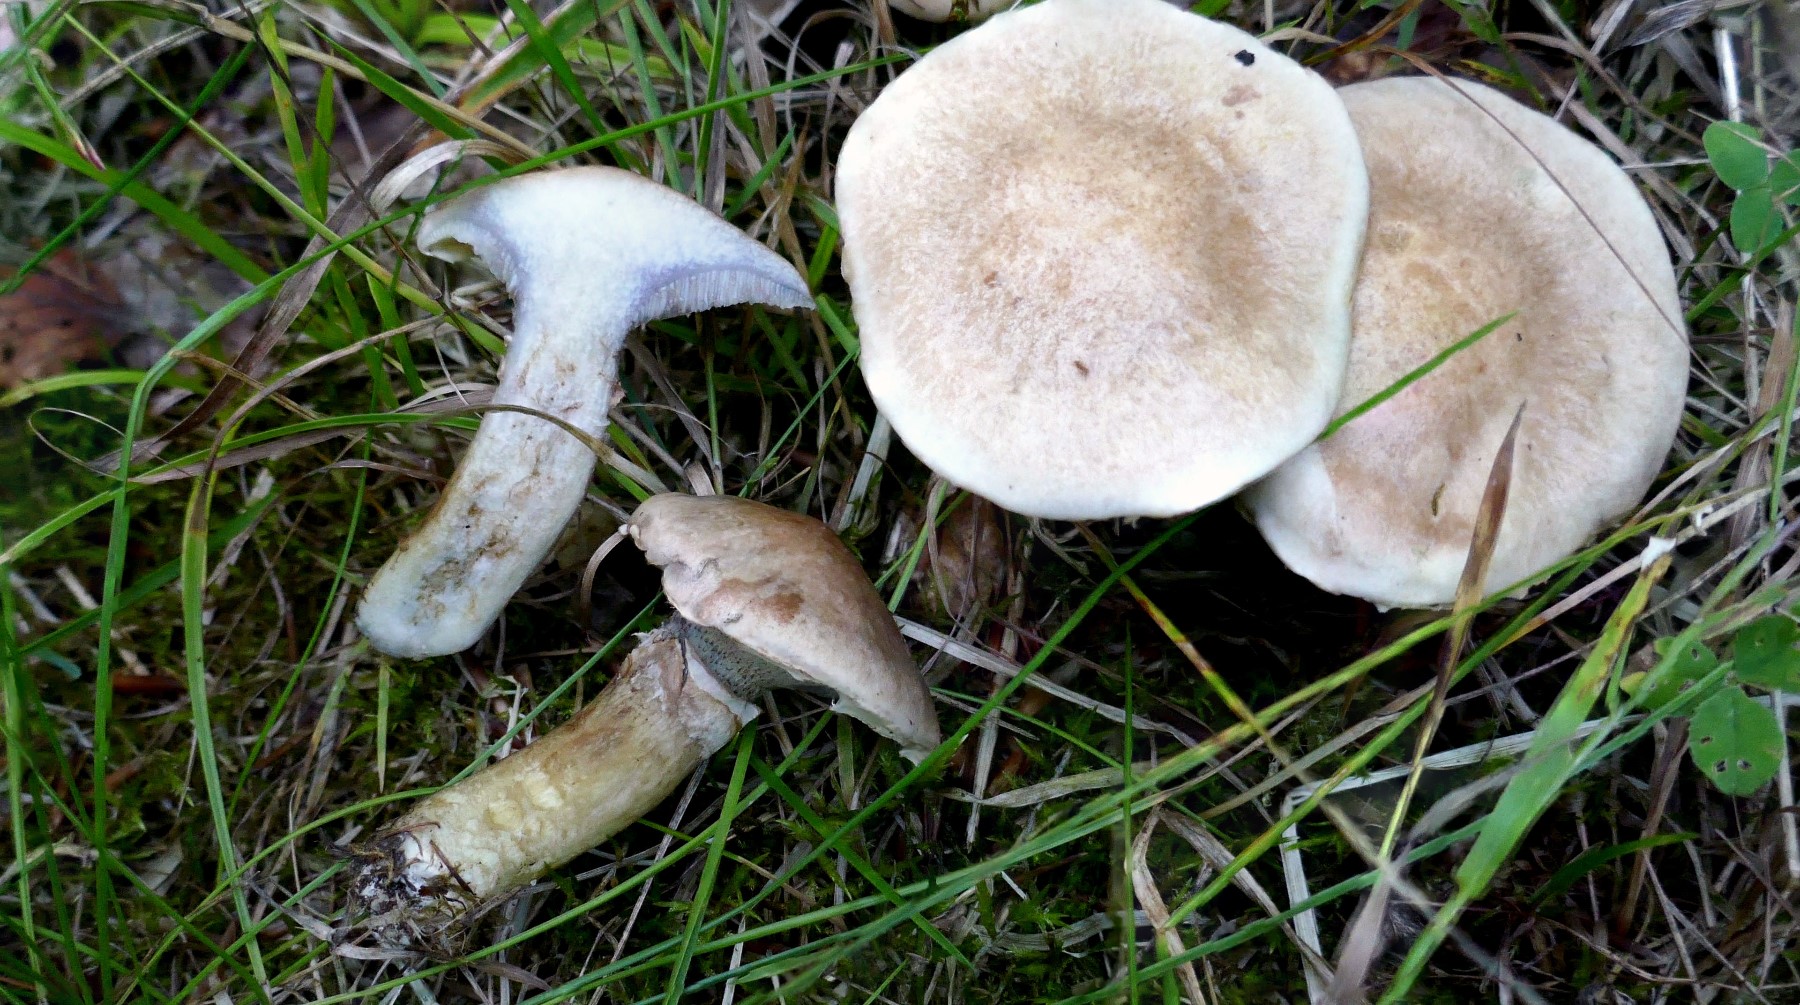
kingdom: Fungi
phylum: Basidiomycota
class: Agaricomycetes
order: Boletales
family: Suillaceae
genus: Suillus
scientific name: Suillus viscidus
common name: olivengrå slimrørhat
